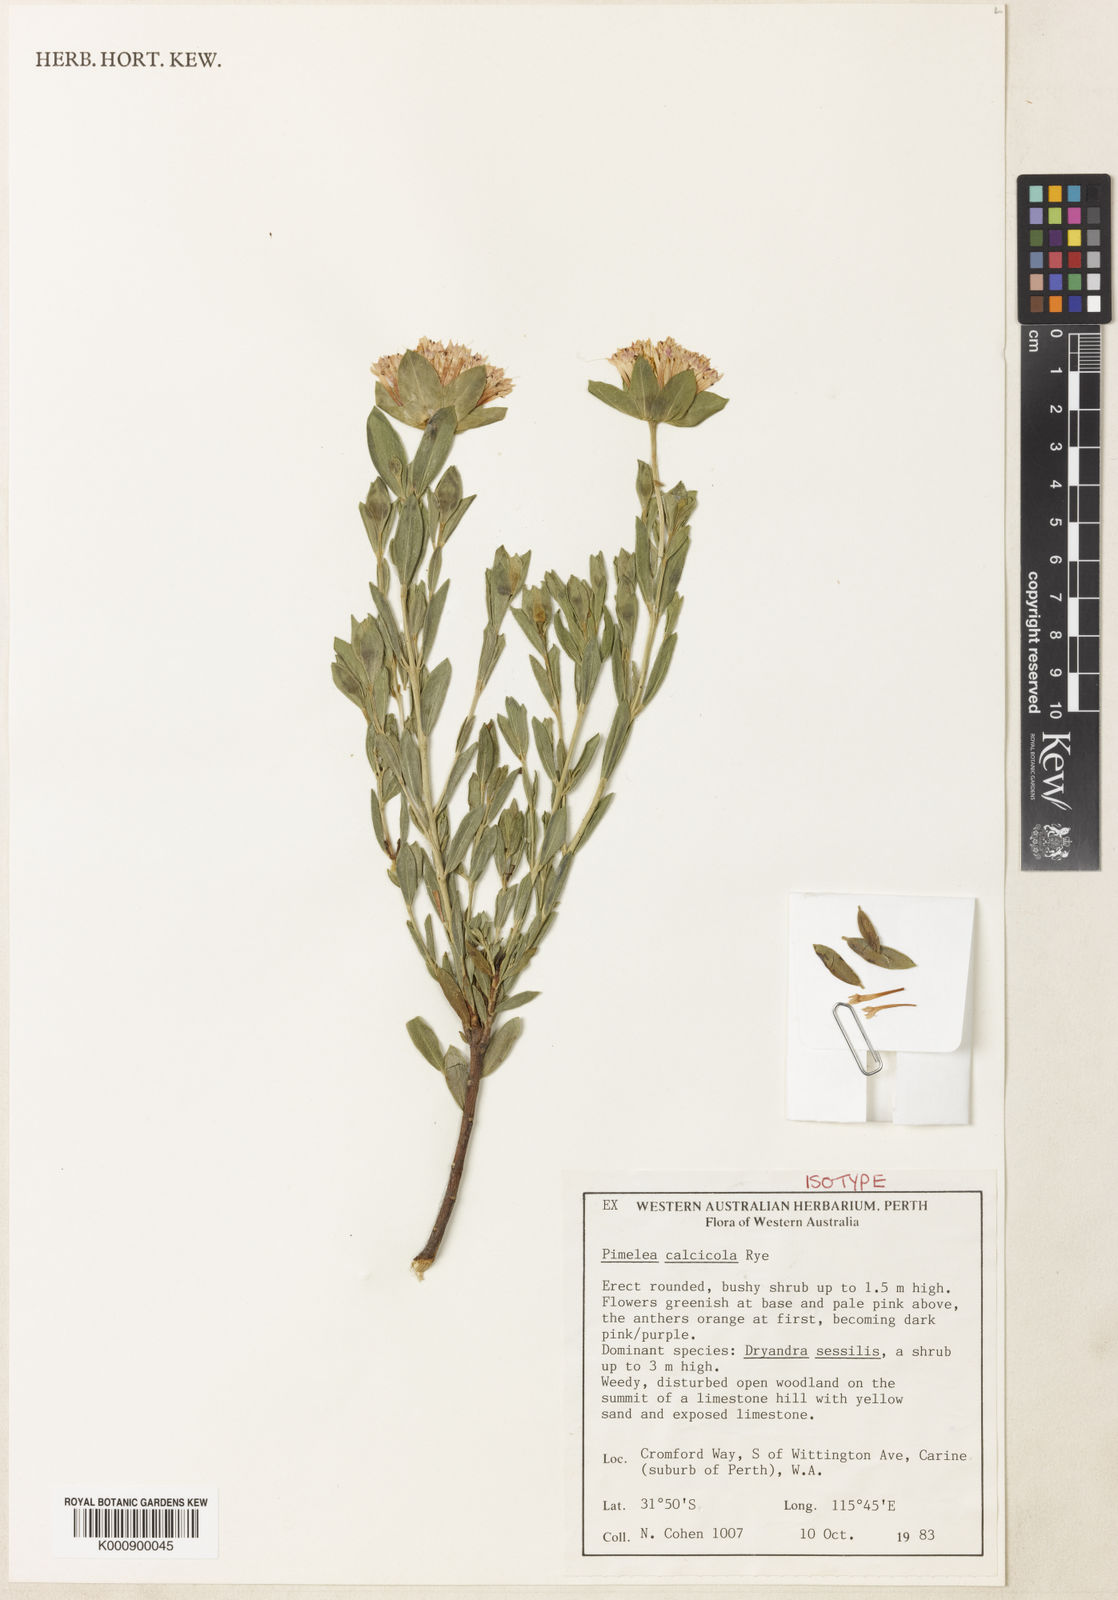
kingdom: Plantae
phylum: Tracheophyta
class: Magnoliopsida
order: Malvales
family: Thymelaeaceae
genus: Pimelea
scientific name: Pimelea calcicola
